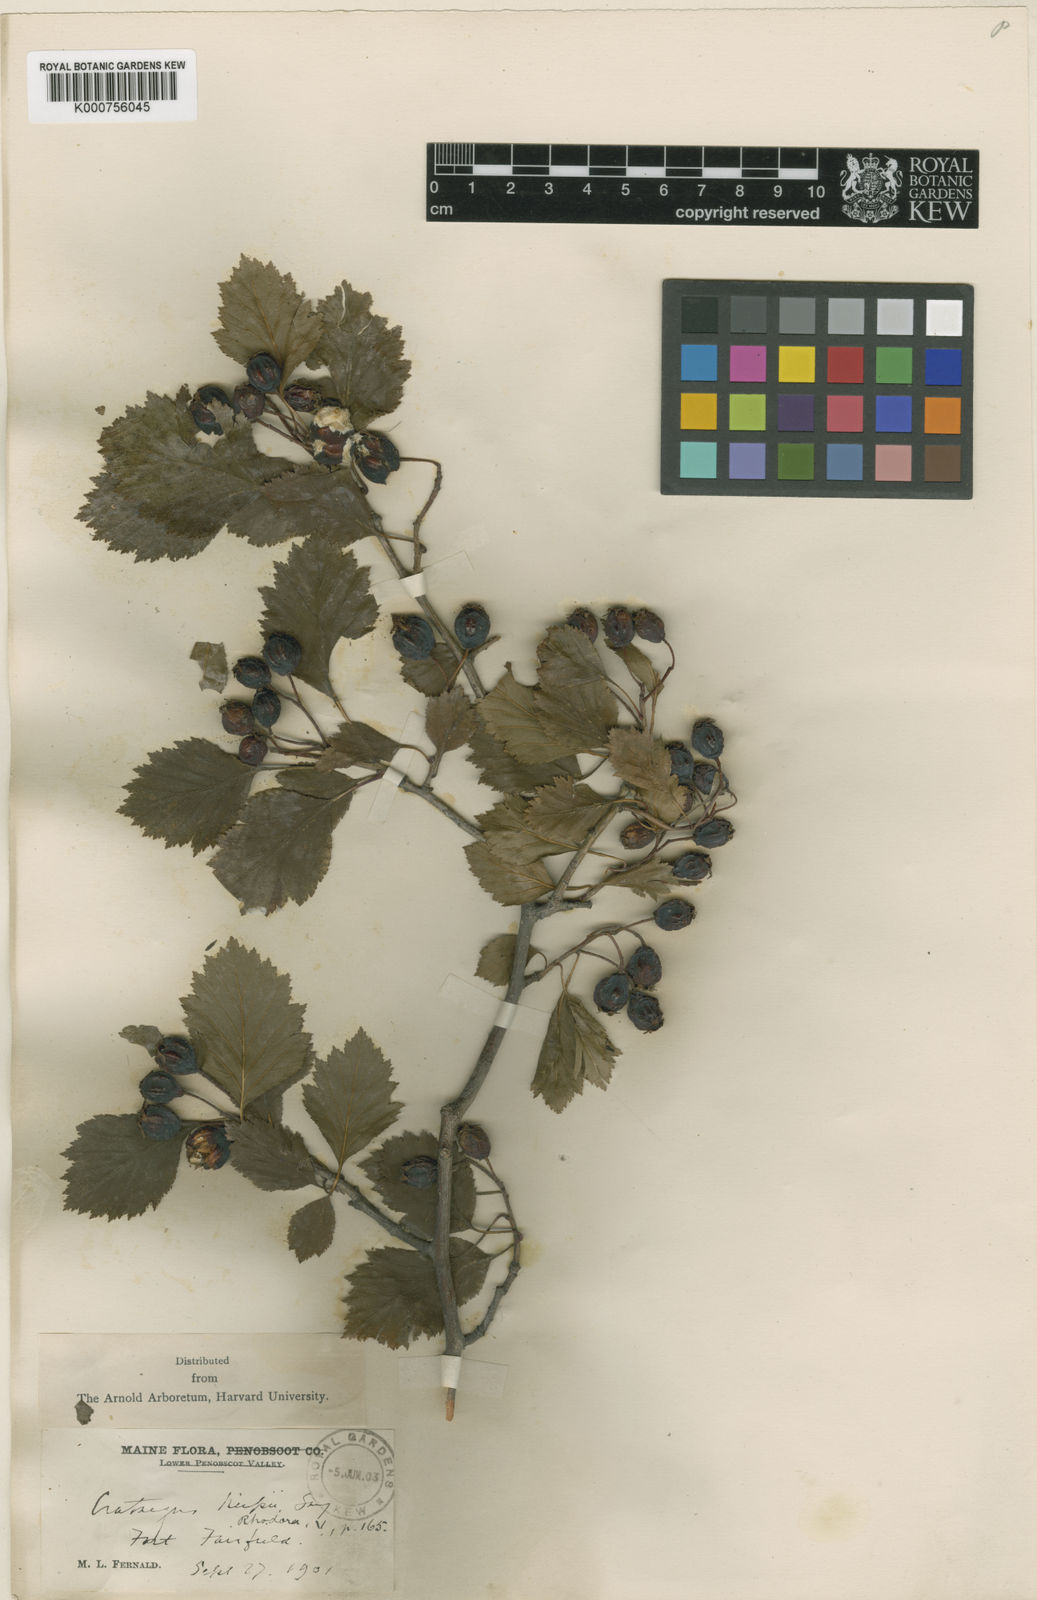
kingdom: Plantae
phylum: Tracheophyta
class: Magnoliopsida
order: Rosales
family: Rosaceae
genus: Crataegus
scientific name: Crataegus chrysocarpa
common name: Fire-berry hawthorn
